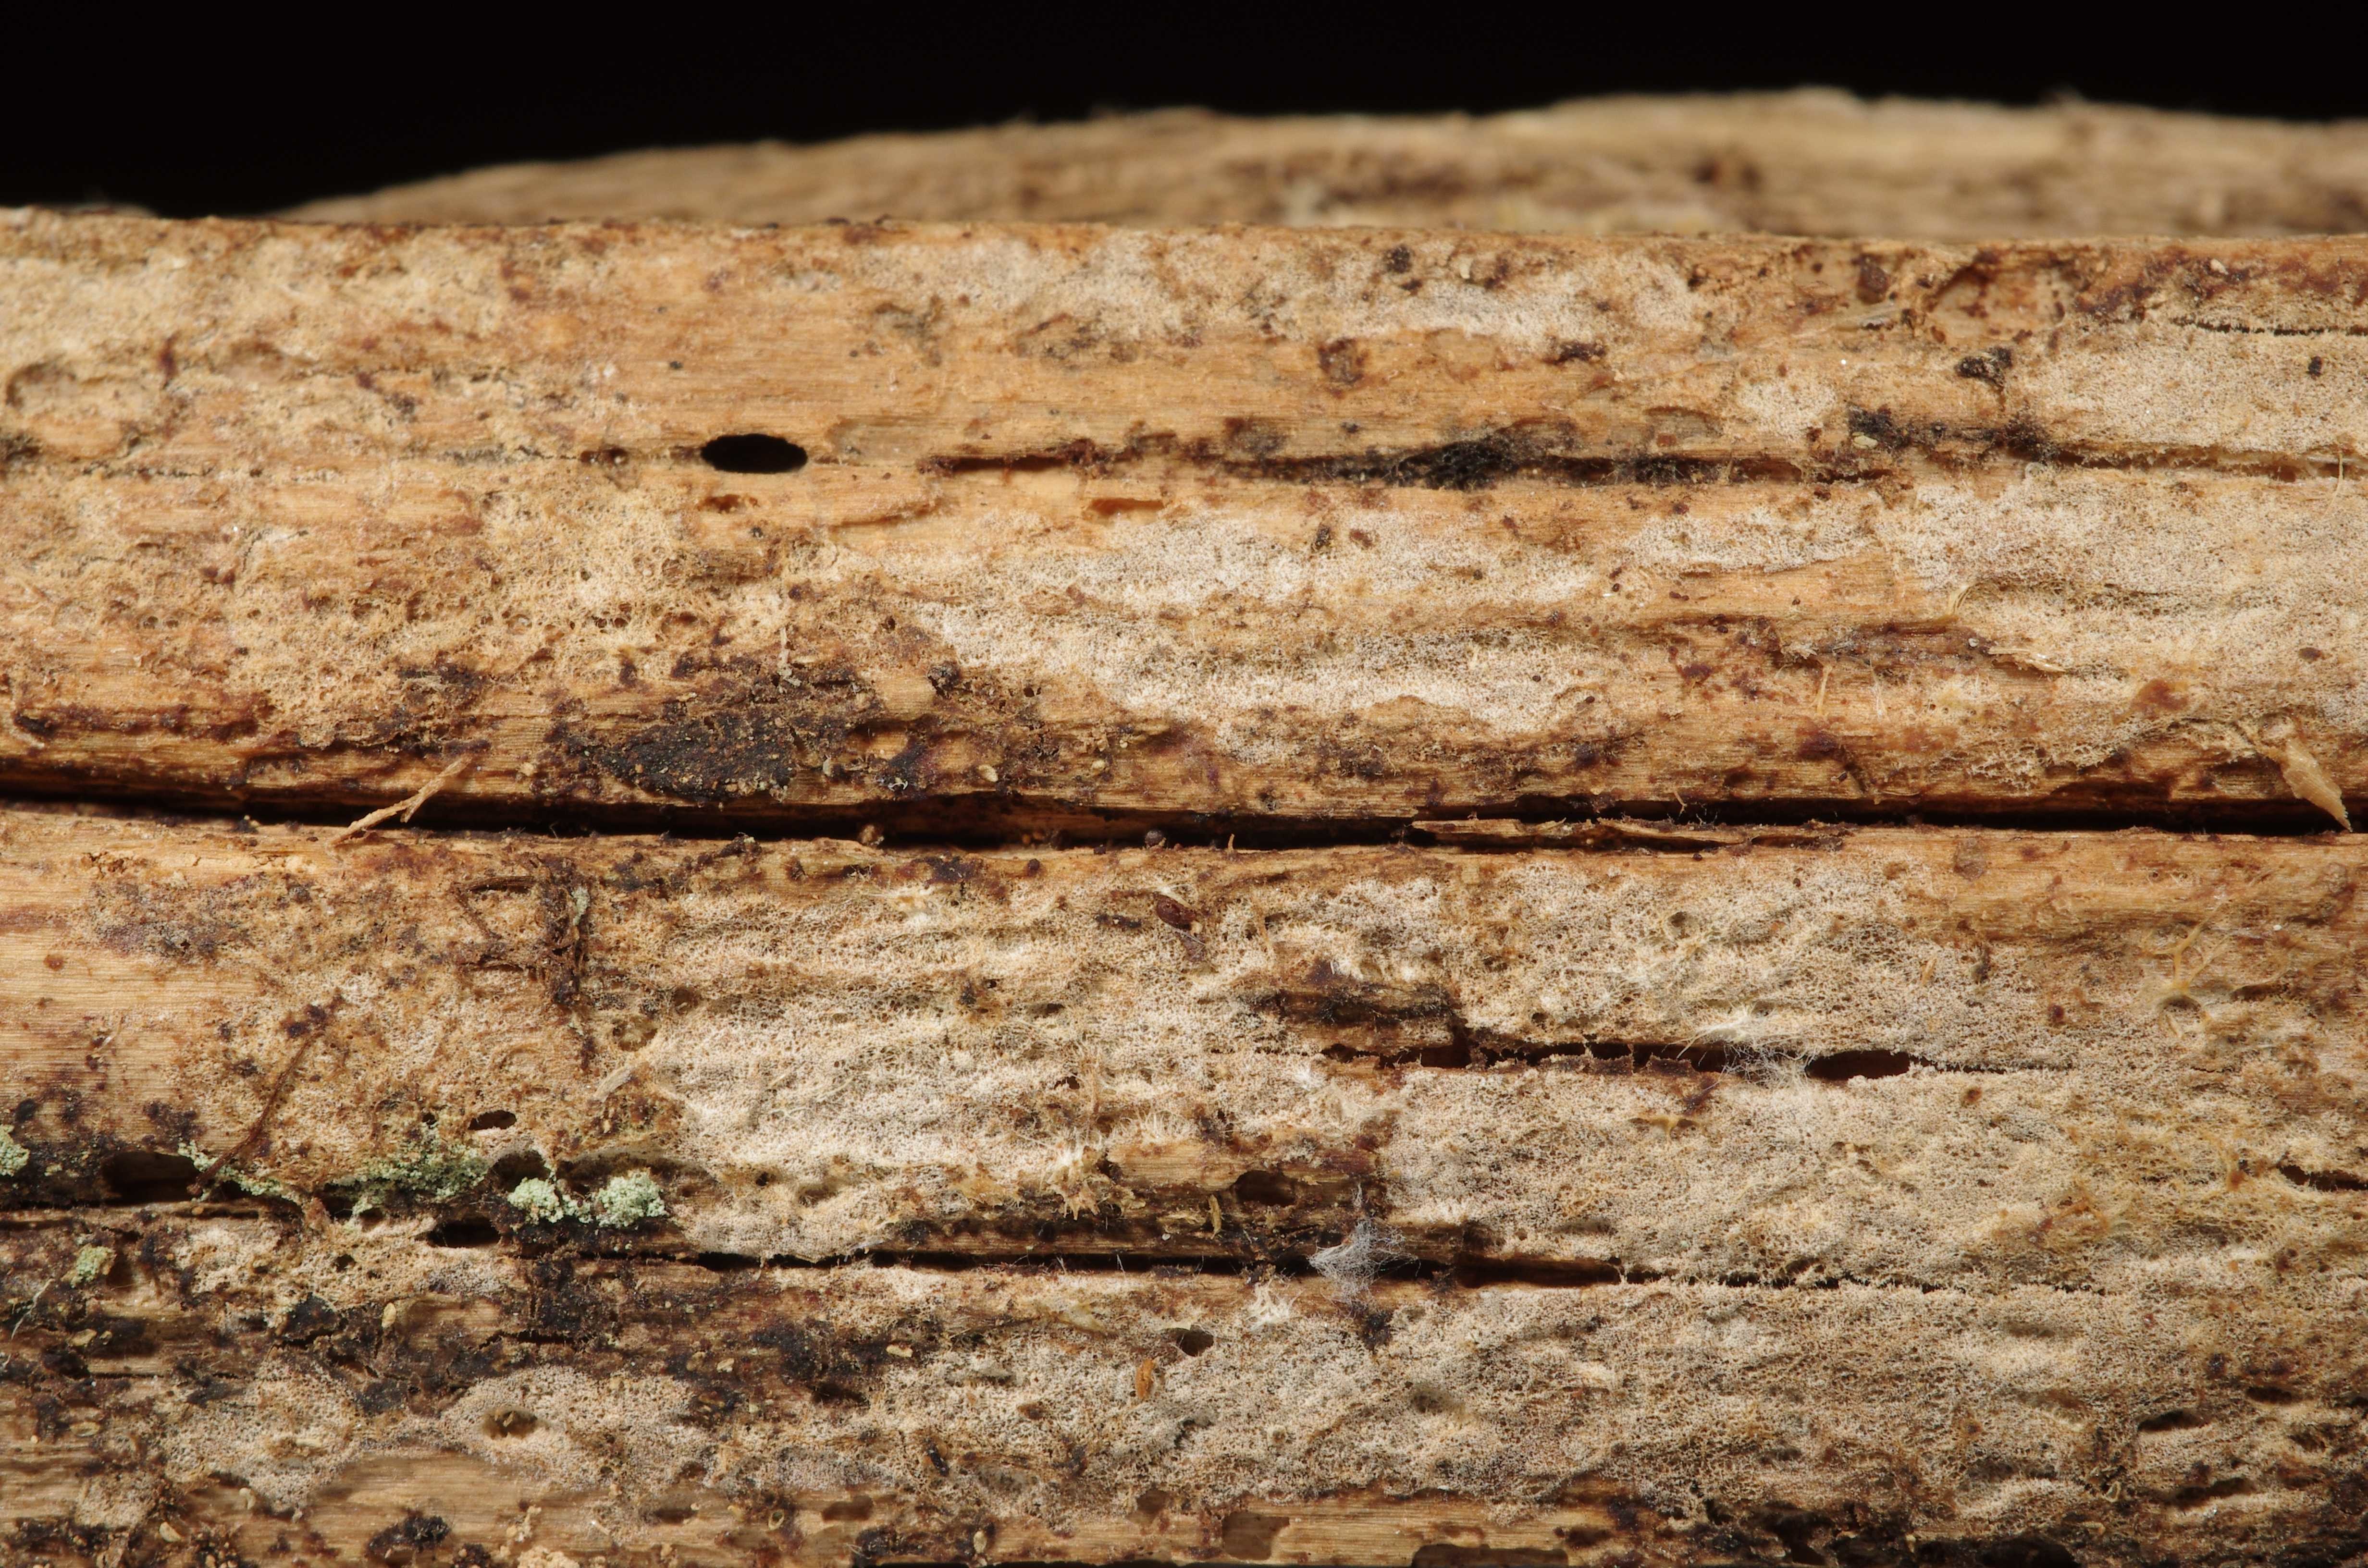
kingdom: Fungi
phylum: Basidiomycota
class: Agaricomycetes
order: Hymenochaetales
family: Rickenellaceae
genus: Peniophorella
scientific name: Peniophorella pallida
